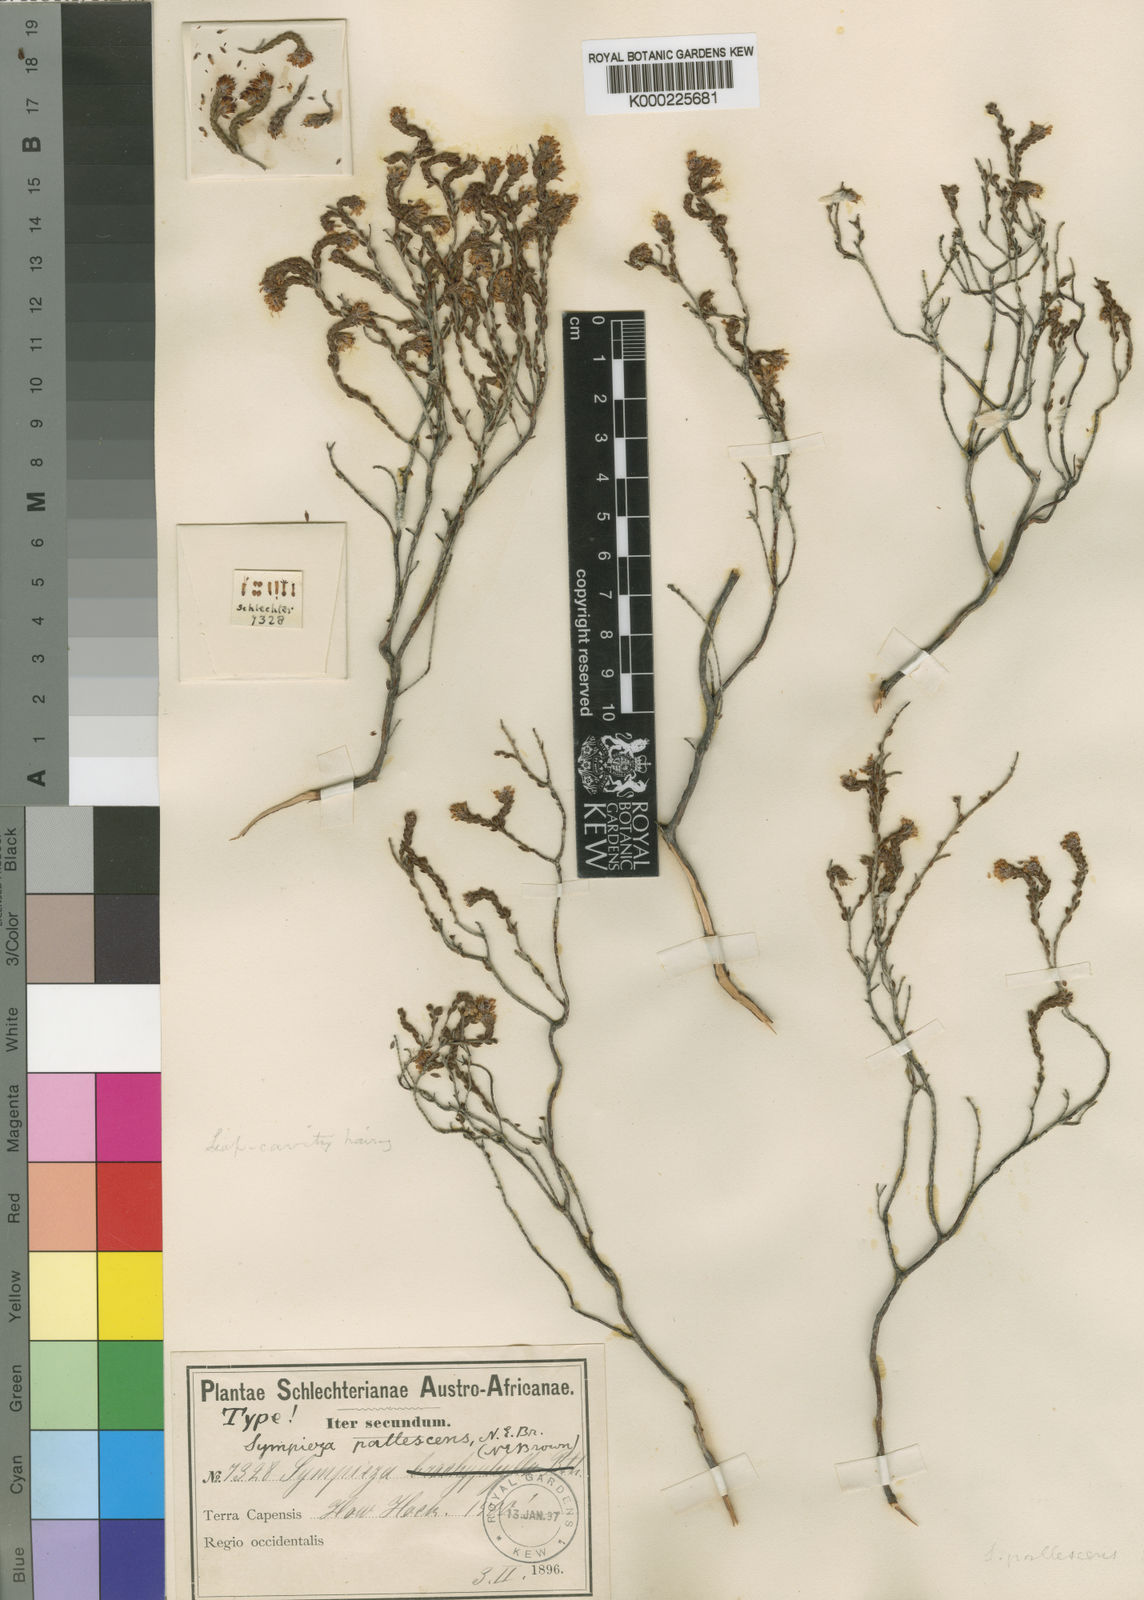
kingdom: Plantae
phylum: Tracheophyta
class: Magnoliopsida
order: Ericales
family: Ericaceae
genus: Erica
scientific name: Erica labialis
